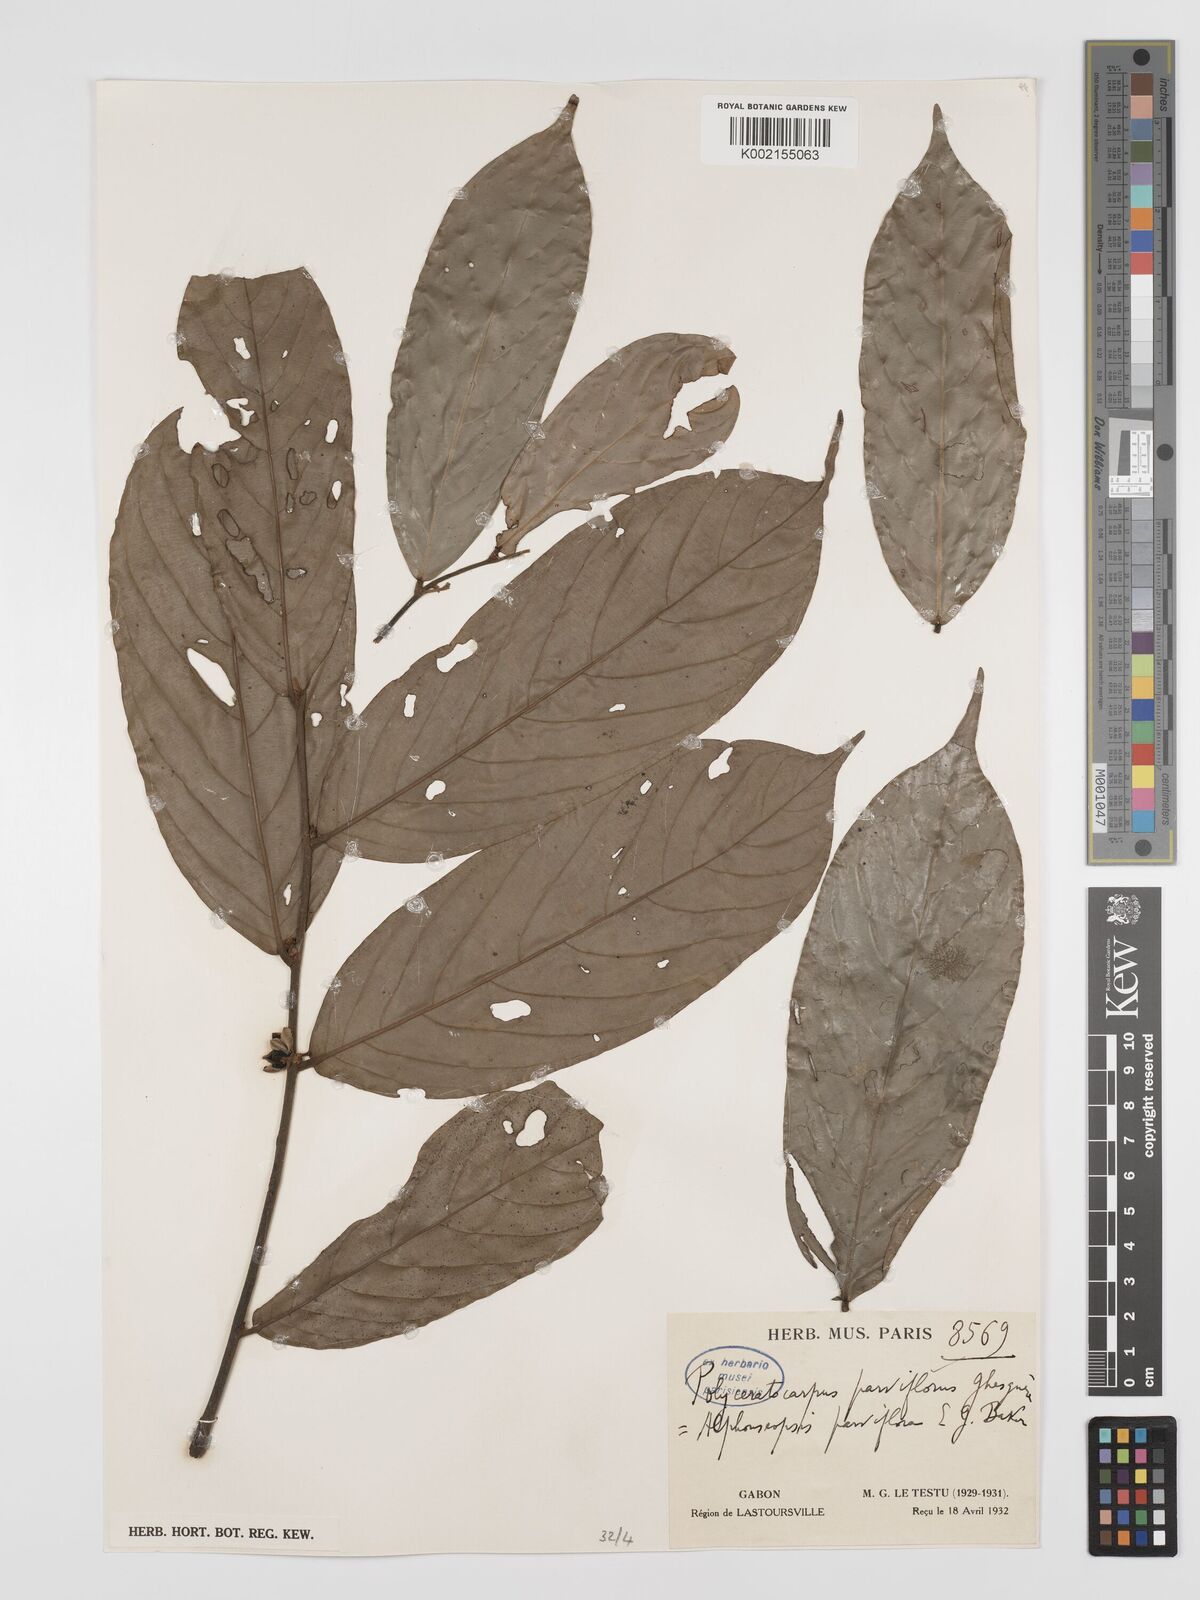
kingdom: Plantae
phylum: Tracheophyta
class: Magnoliopsida
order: Magnoliales
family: Annonaceae
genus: Polyceratocarpus
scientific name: Polyceratocarpus parviflorus
